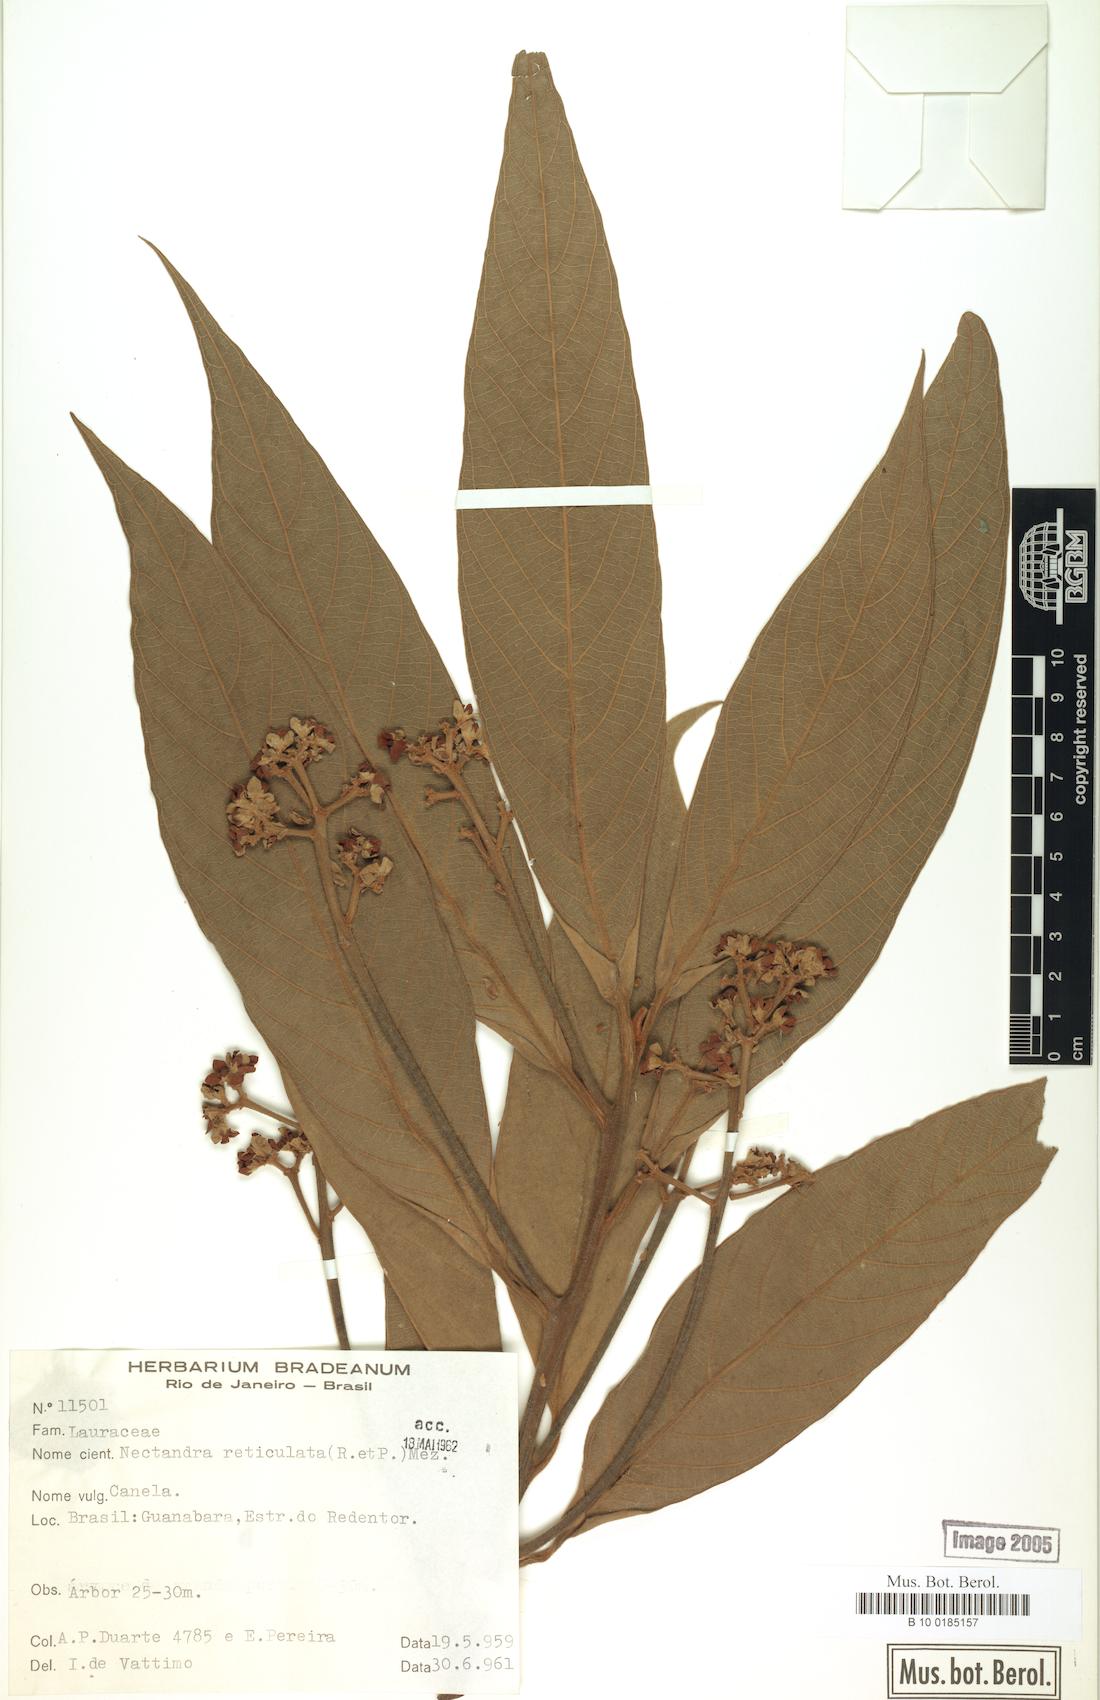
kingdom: Plantae
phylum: Tracheophyta
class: Magnoliopsida
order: Laurales
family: Lauraceae
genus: Nectandra
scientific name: Nectandra villosa
